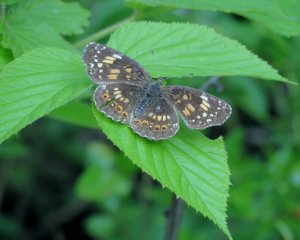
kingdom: Animalia
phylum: Arthropoda
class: Insecta
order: Lepidoptera
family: Nymphalidae
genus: Chlosyne
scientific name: Chlosyne nycteis
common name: Silvery Checkerspot
